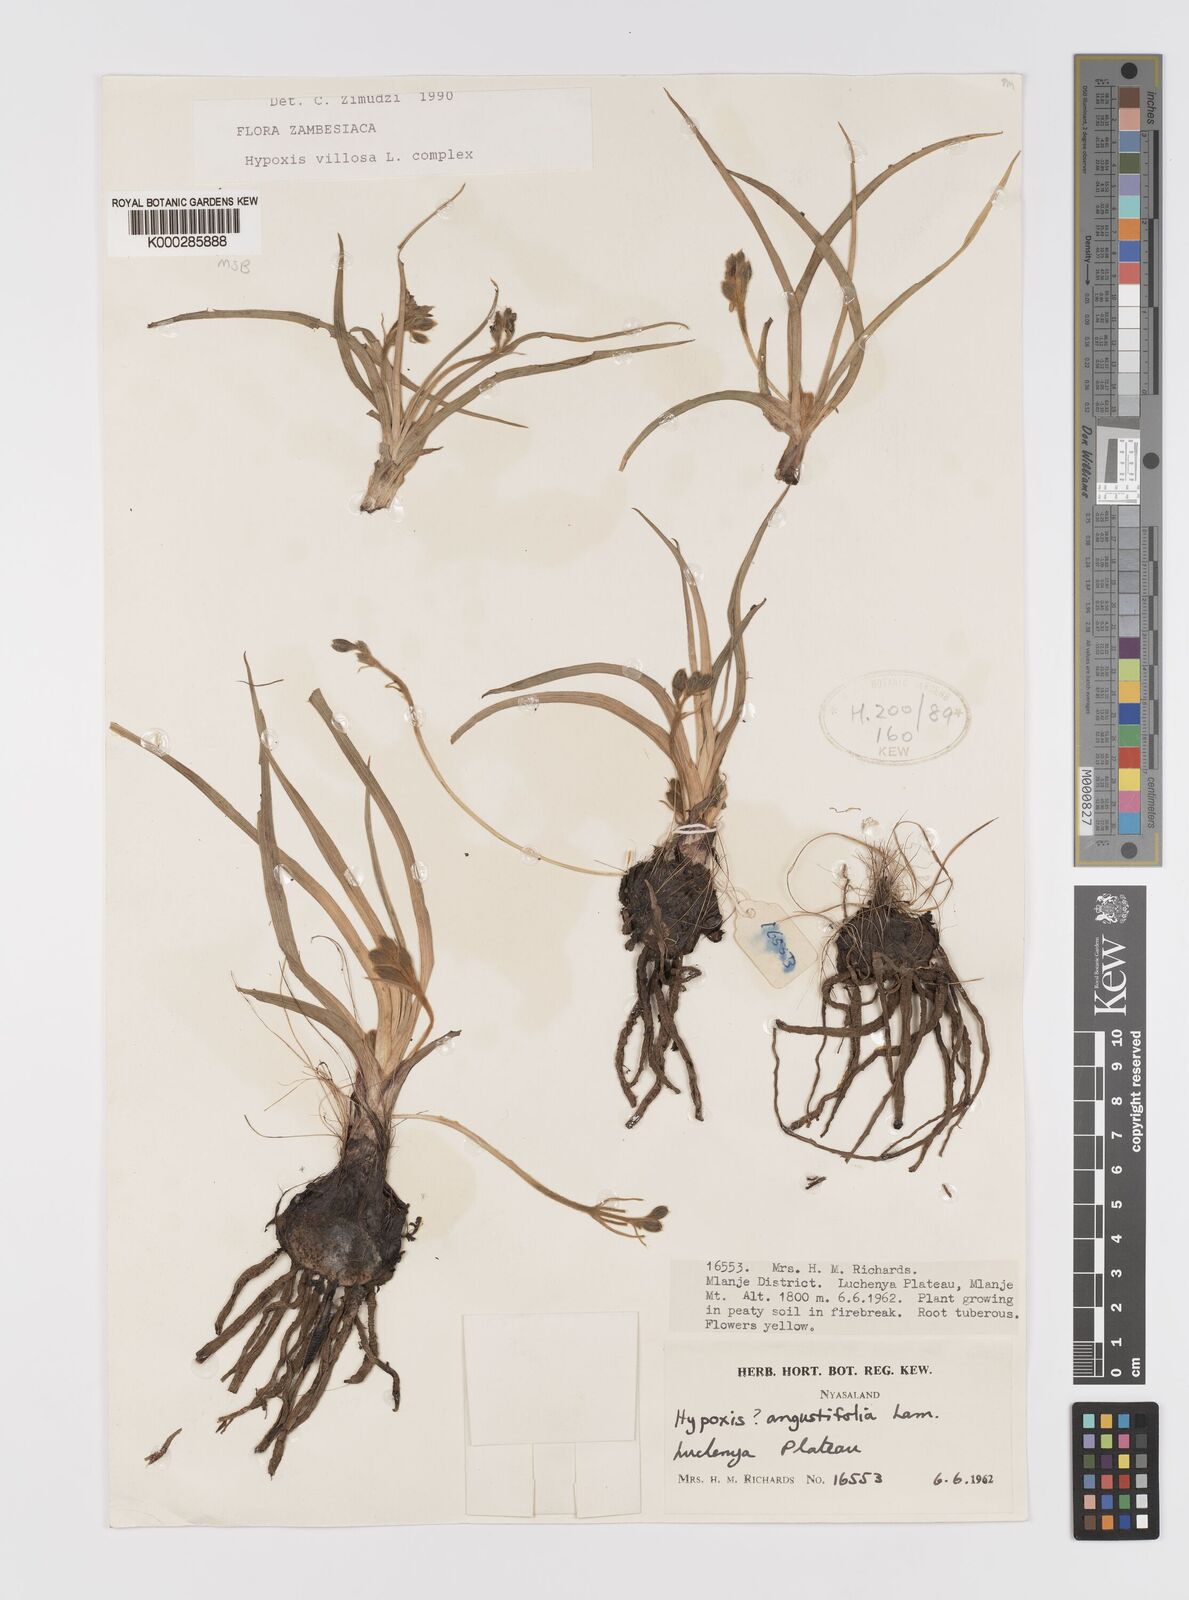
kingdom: Plantae
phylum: Tracheophyta
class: Liliopsida
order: Asparagales
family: Hypoxidaceae
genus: Hypoxis
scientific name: Hypoxis
